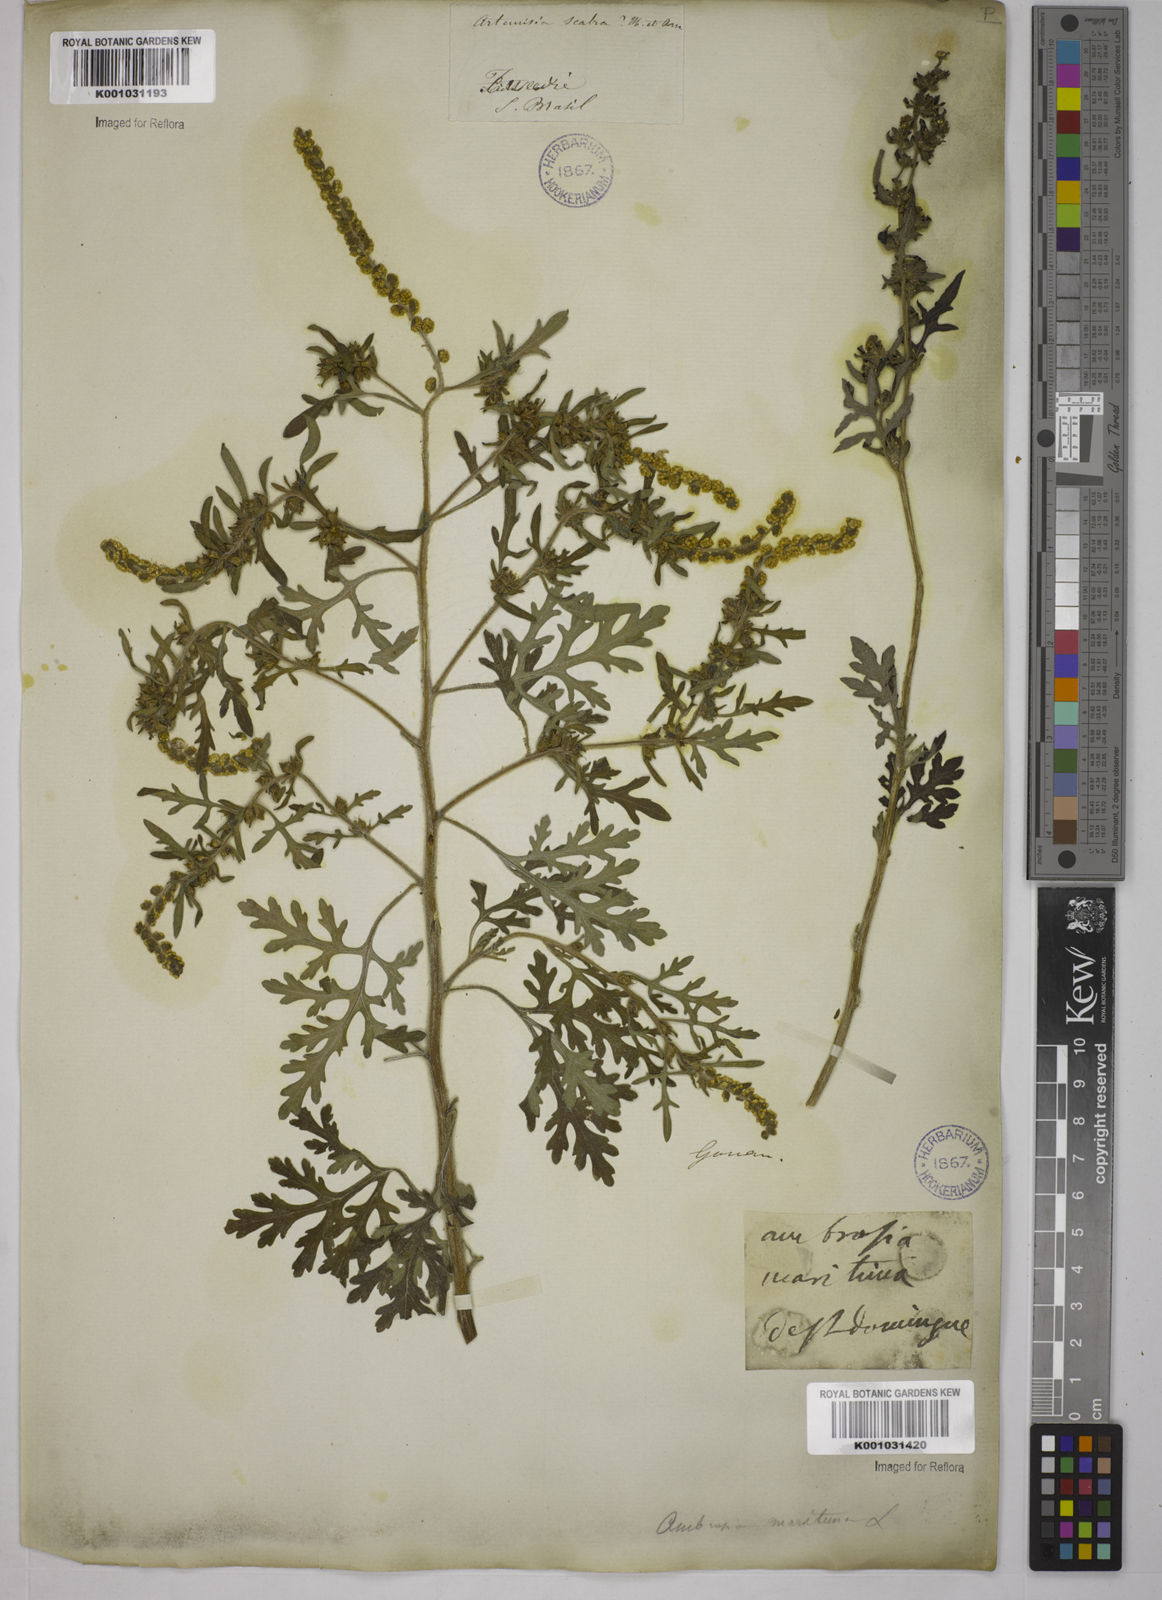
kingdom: Plantae
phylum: Tracheophyta
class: Magnoliopsida
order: Asterales
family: Asteraceae
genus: Ambrosia
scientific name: Ambrosia artemisiifolia
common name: Annual ragweed
